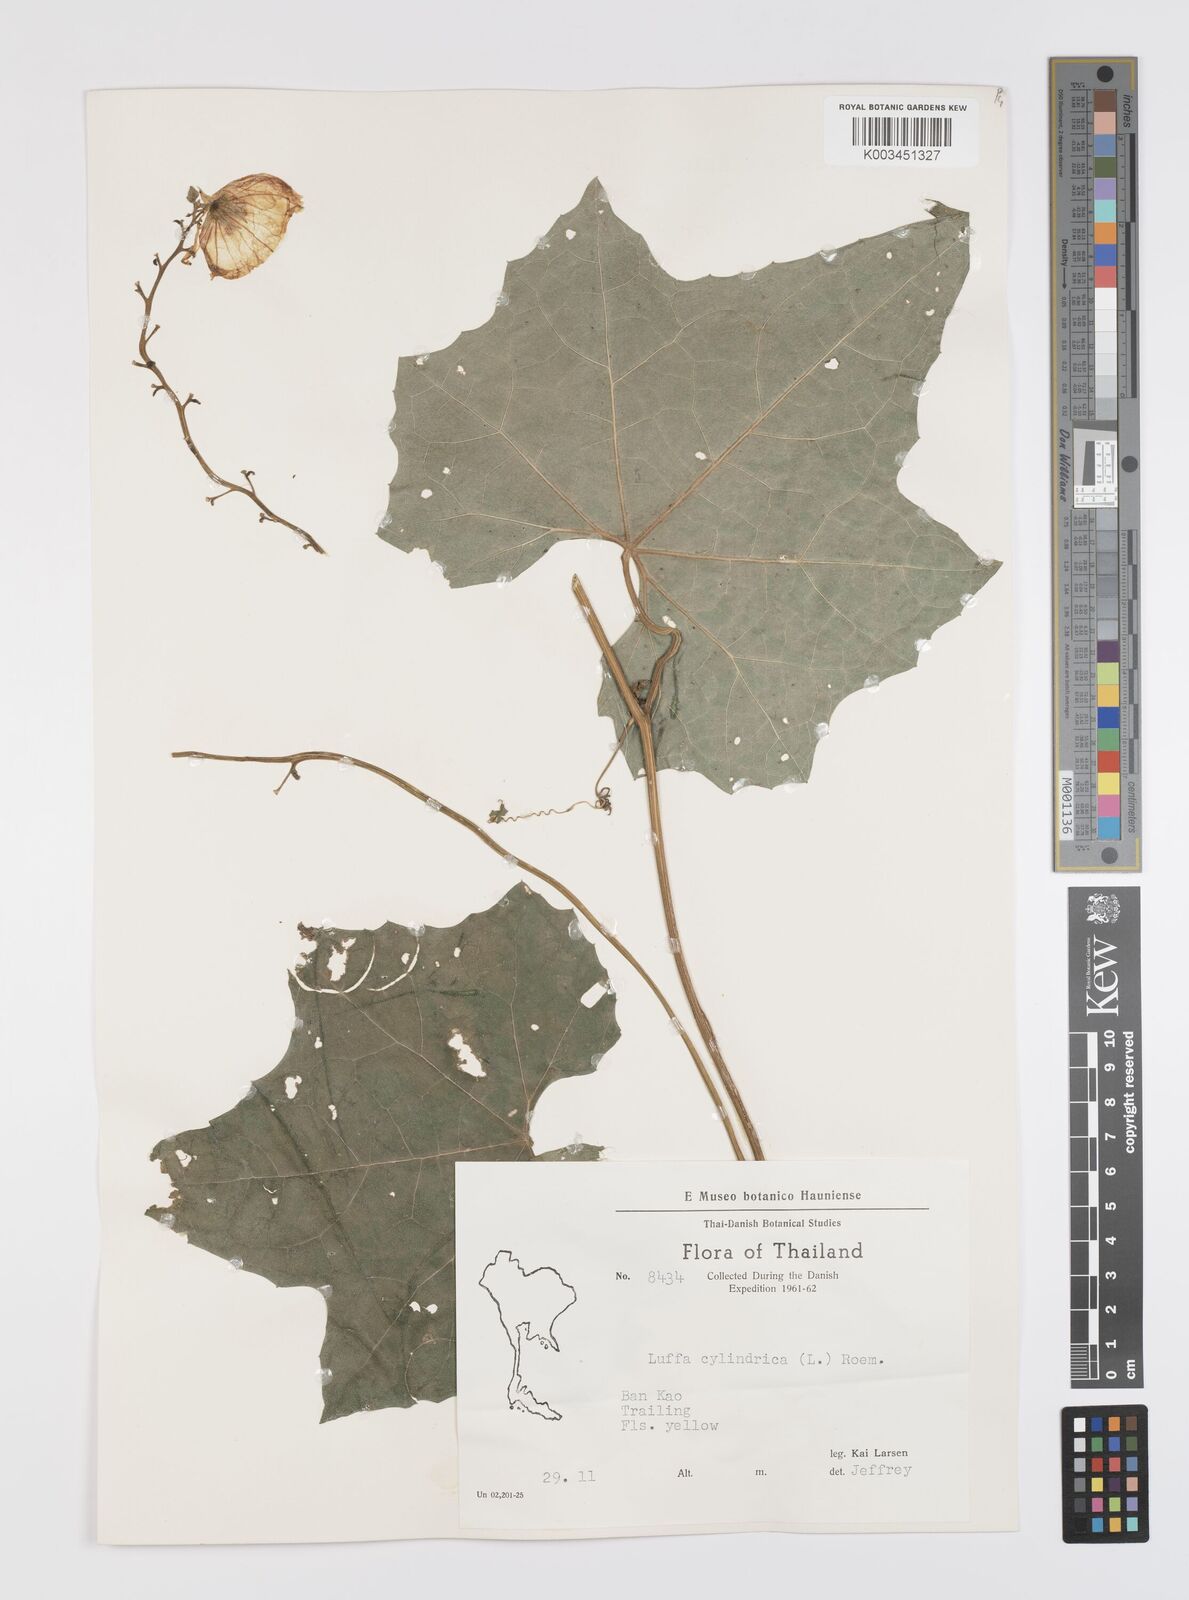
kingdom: Plantae
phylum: Tracheophyta
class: Magnoliopsida
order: Cucurbitales
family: Cucurbitaceae
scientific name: Cucurbitaceae
